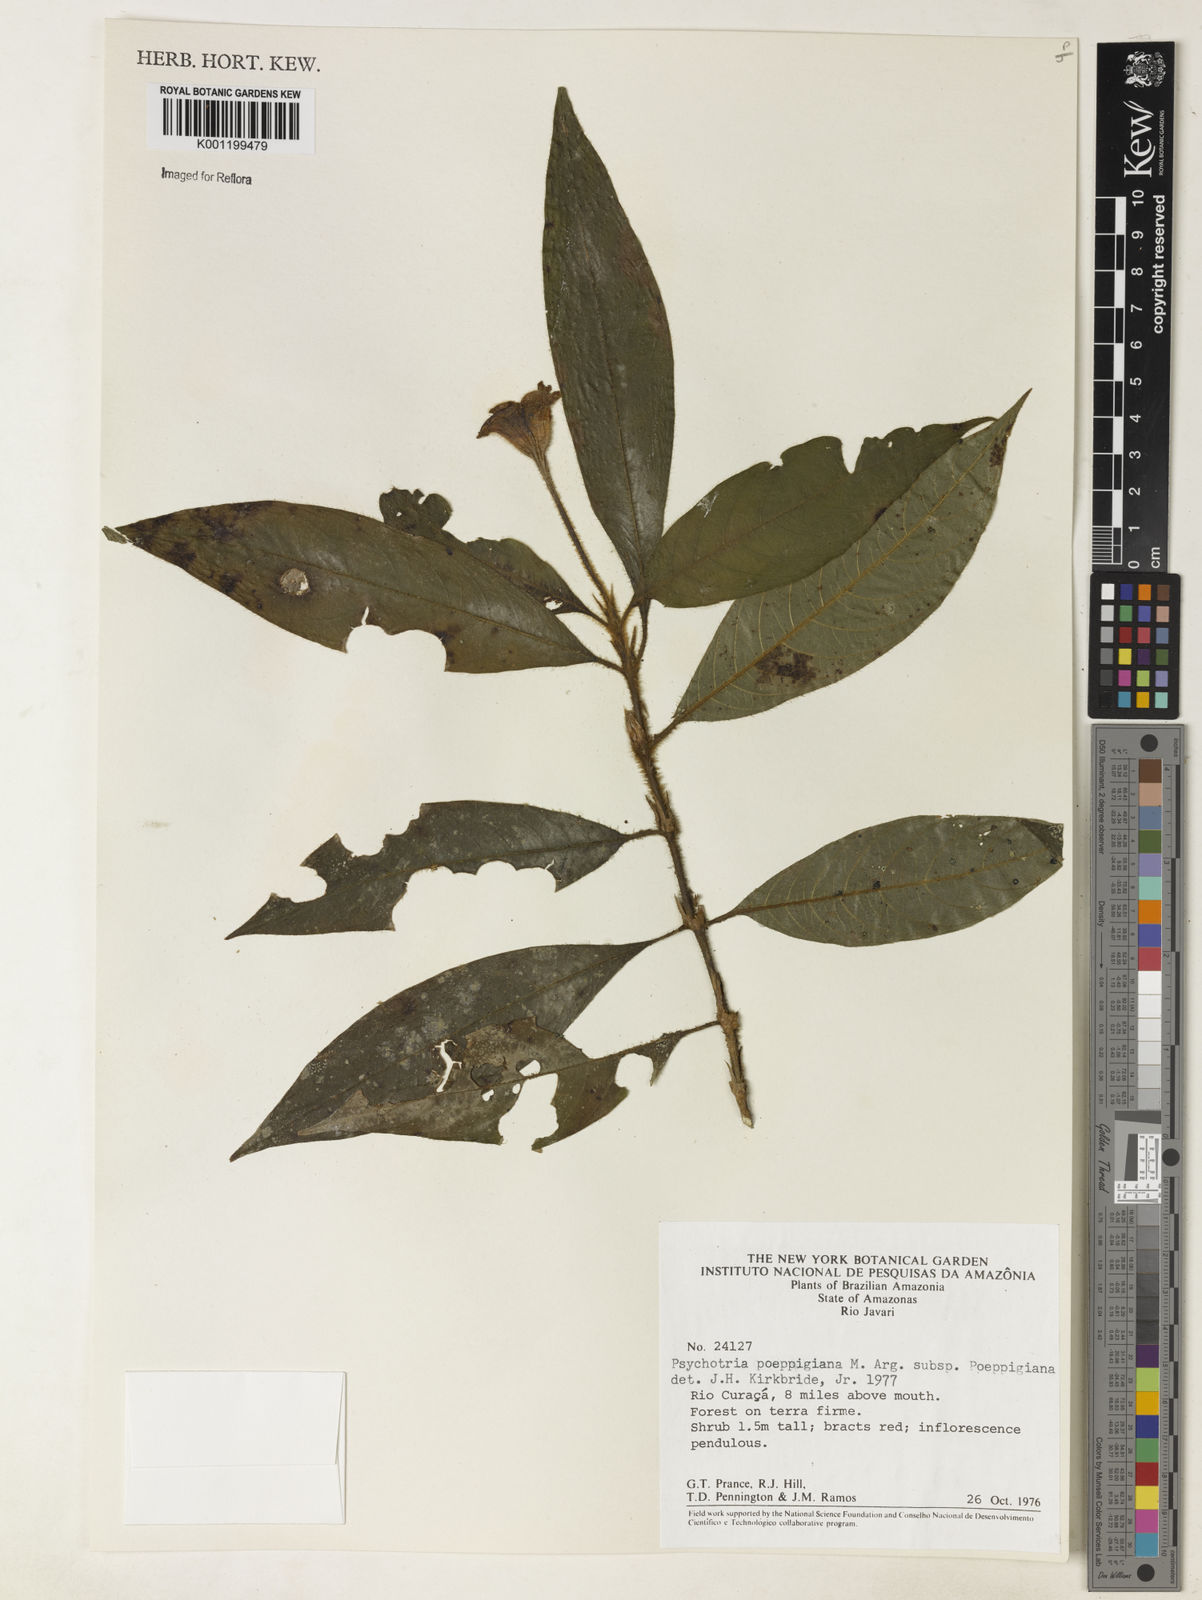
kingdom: Plantae
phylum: Tracheophyta
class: Magnoliopsida
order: Gentianales
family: Rubiaceae
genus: Psychotria
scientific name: Psychotria
